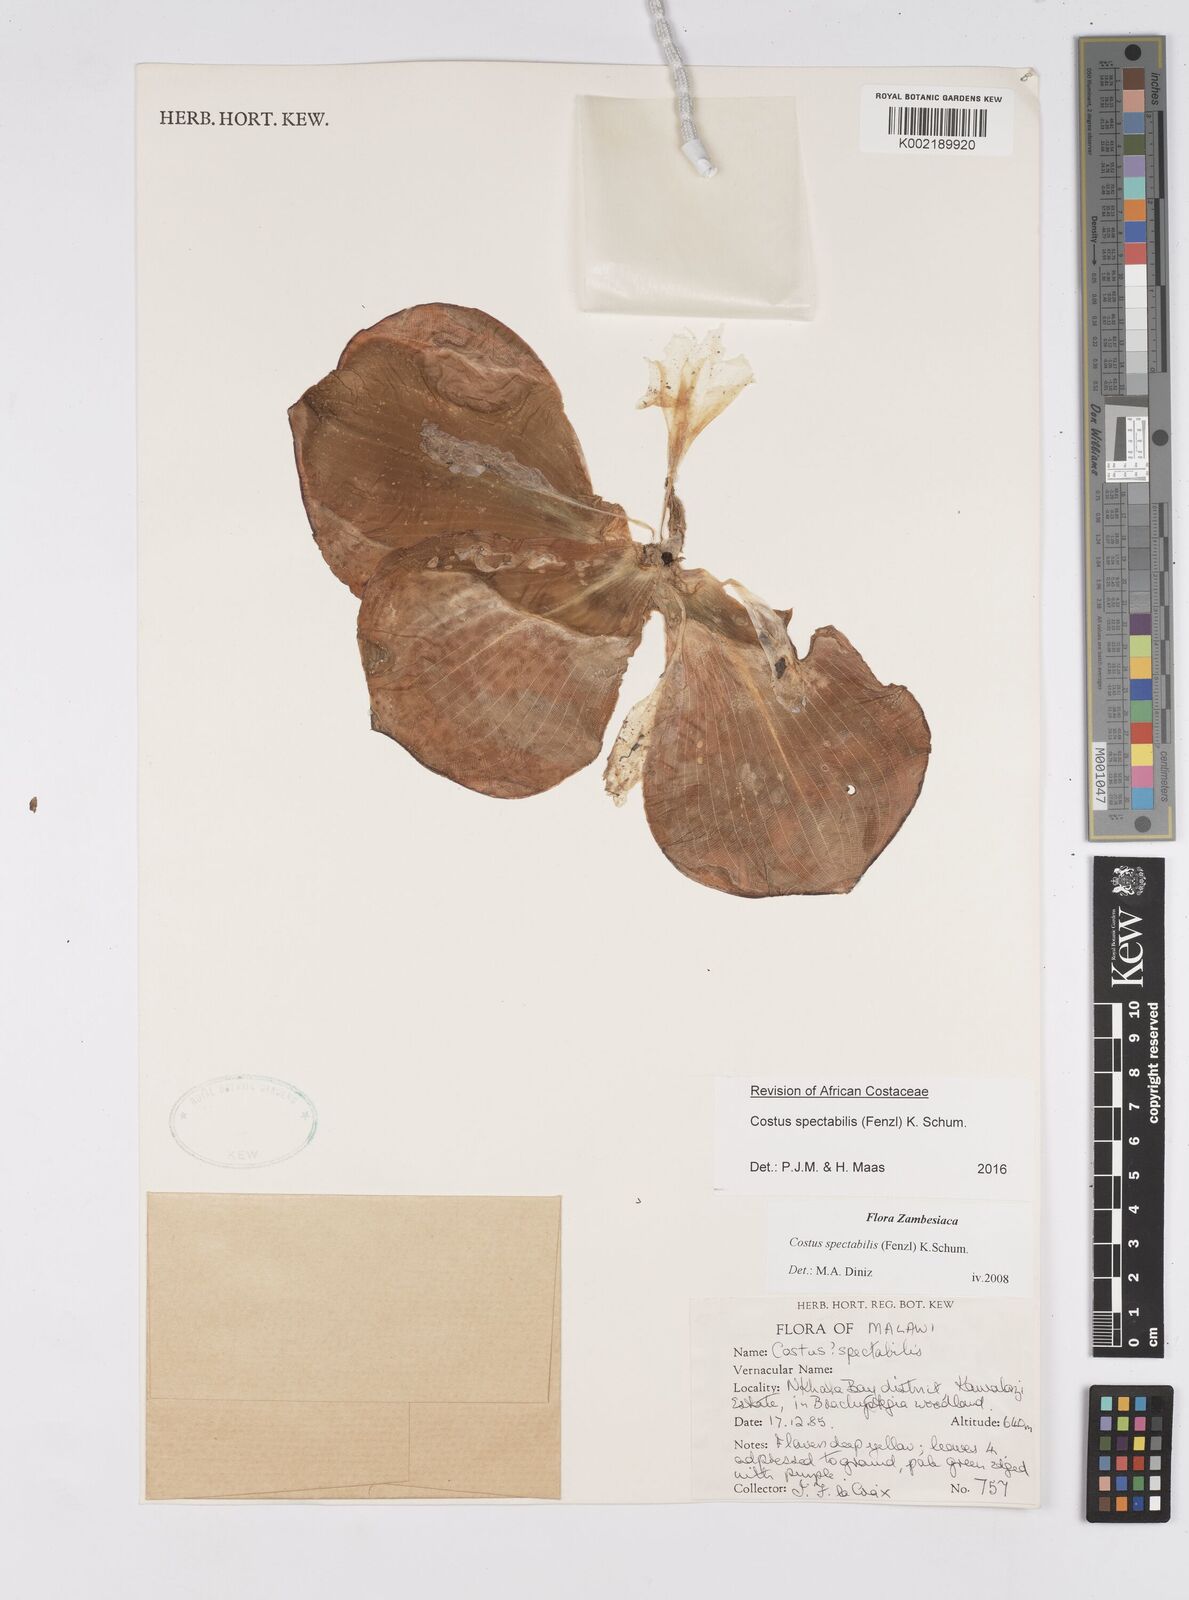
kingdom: Plantae
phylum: Tracheophyta
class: Liliopsida
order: Zingiberales
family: Costaceae
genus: Costus
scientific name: Costus spectabilis
